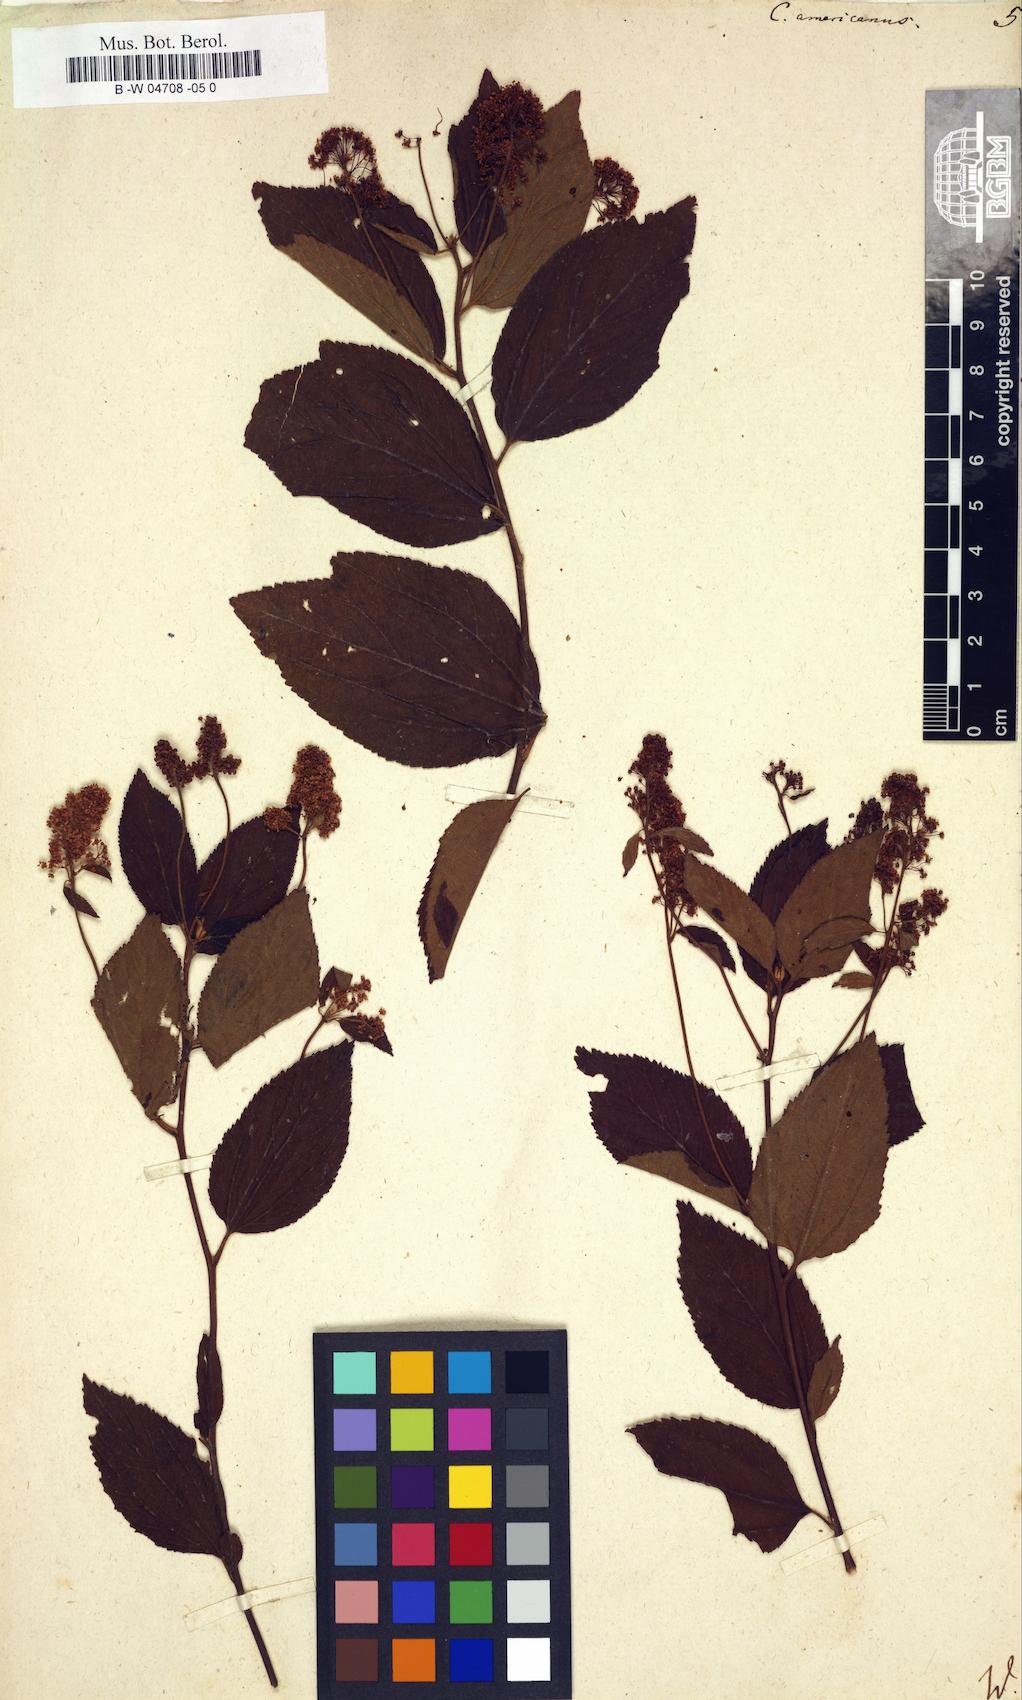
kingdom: Plantae
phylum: Tracheophyta
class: Magnoliopsida
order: Rosales
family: Rhamnaceae
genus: Ceanothus
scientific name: Ceanothus americanus
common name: Redroot
